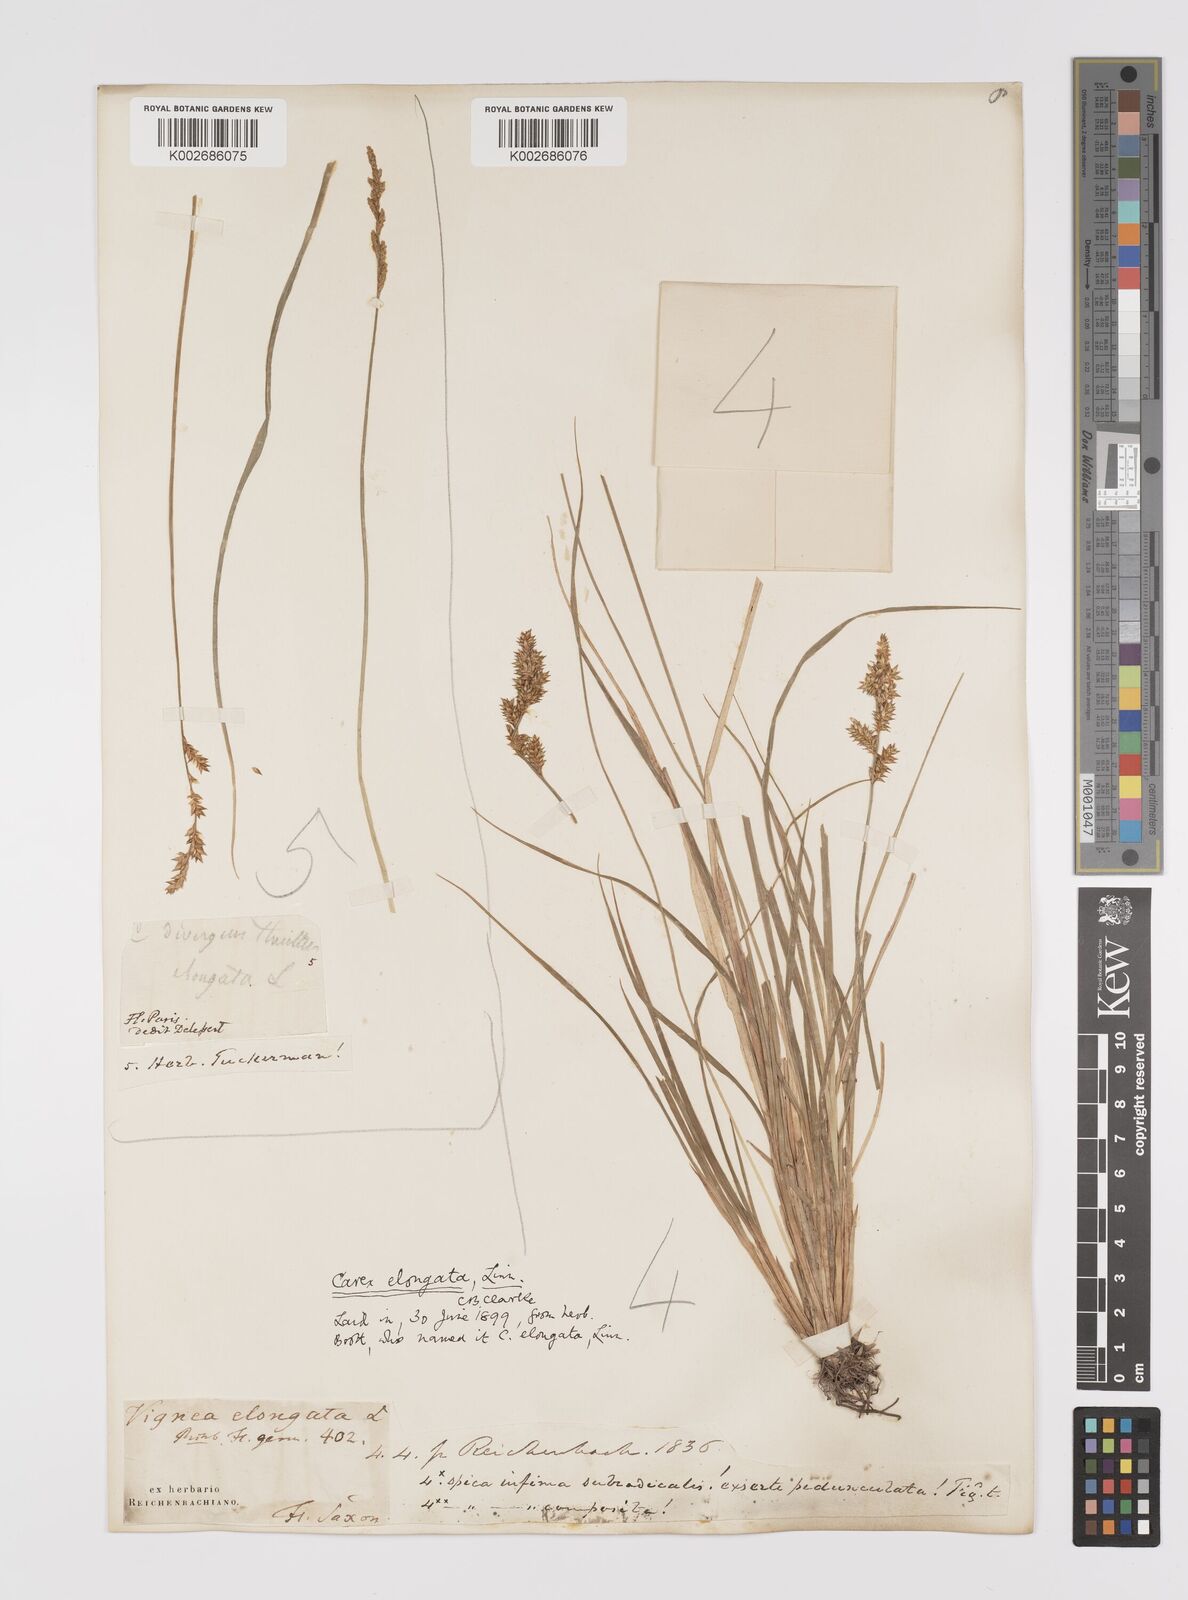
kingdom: Plantae
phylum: Tracheophyta
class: Liliopsida
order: Poales
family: Cyperaceae
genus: Carex
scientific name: Carex elongata
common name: Elongated sedge
